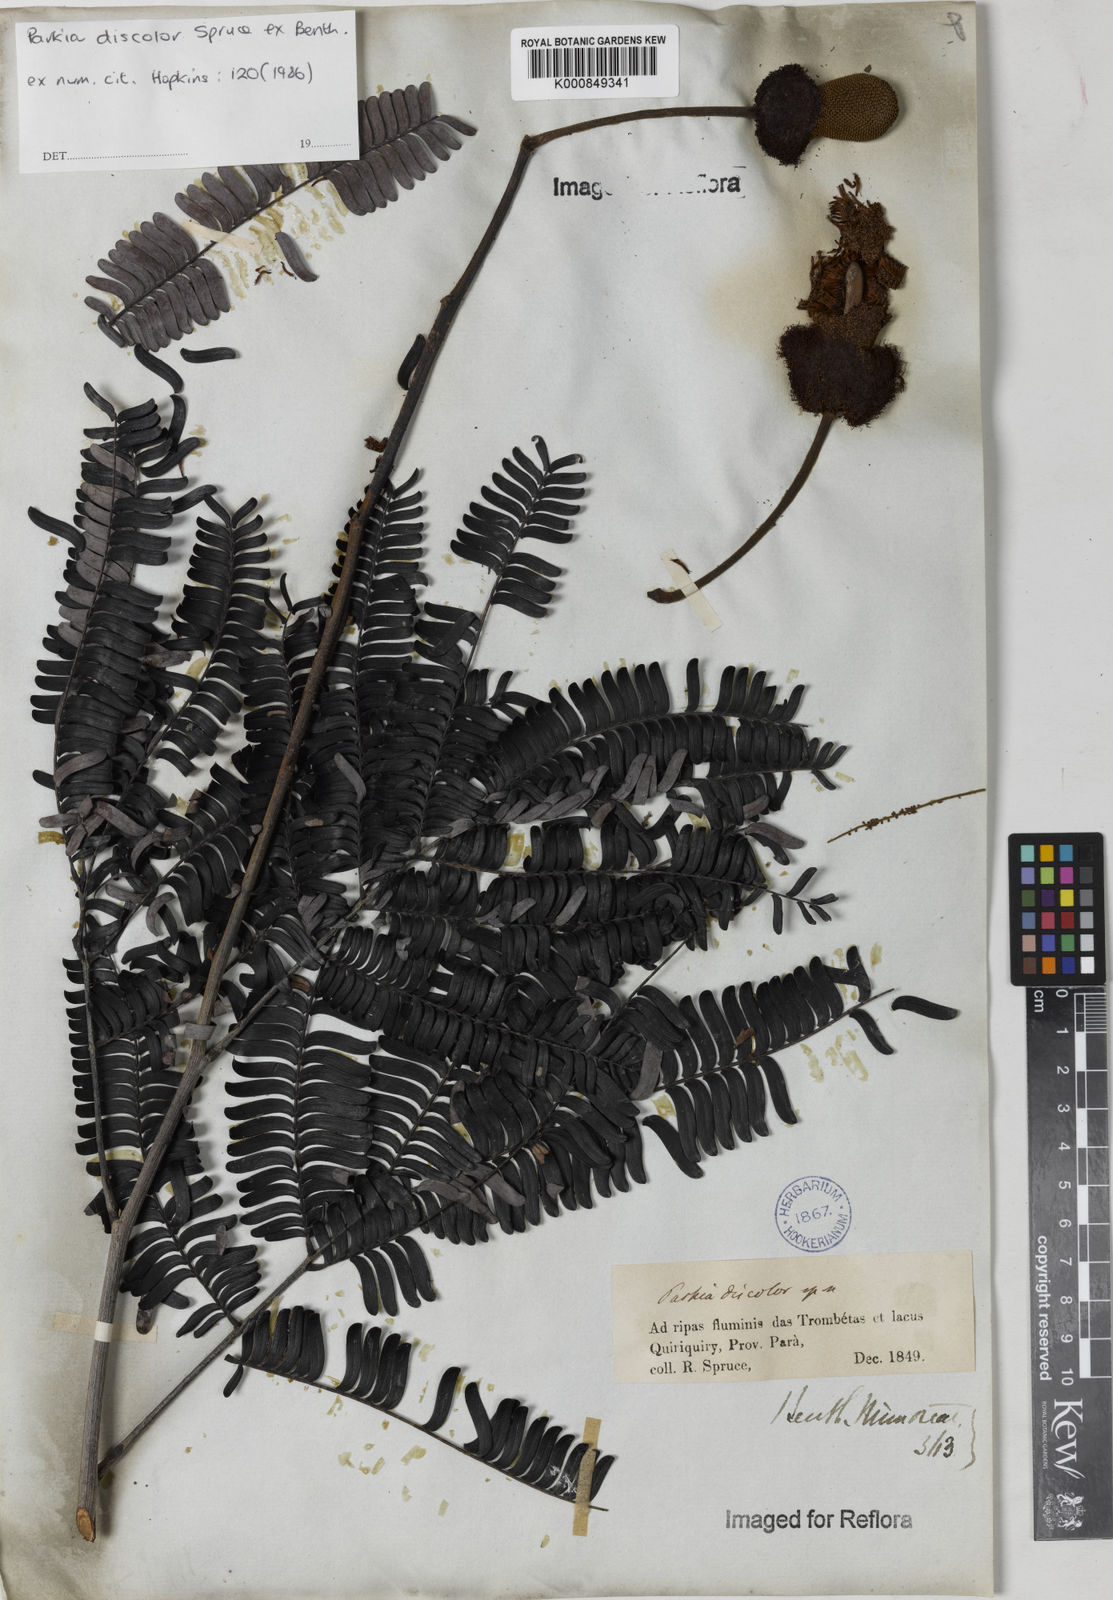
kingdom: Plantae
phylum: Tracheophyta
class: Magnoliopsida
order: Fabales
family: Fabaceae
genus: Parkia
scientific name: Parkia discolor
